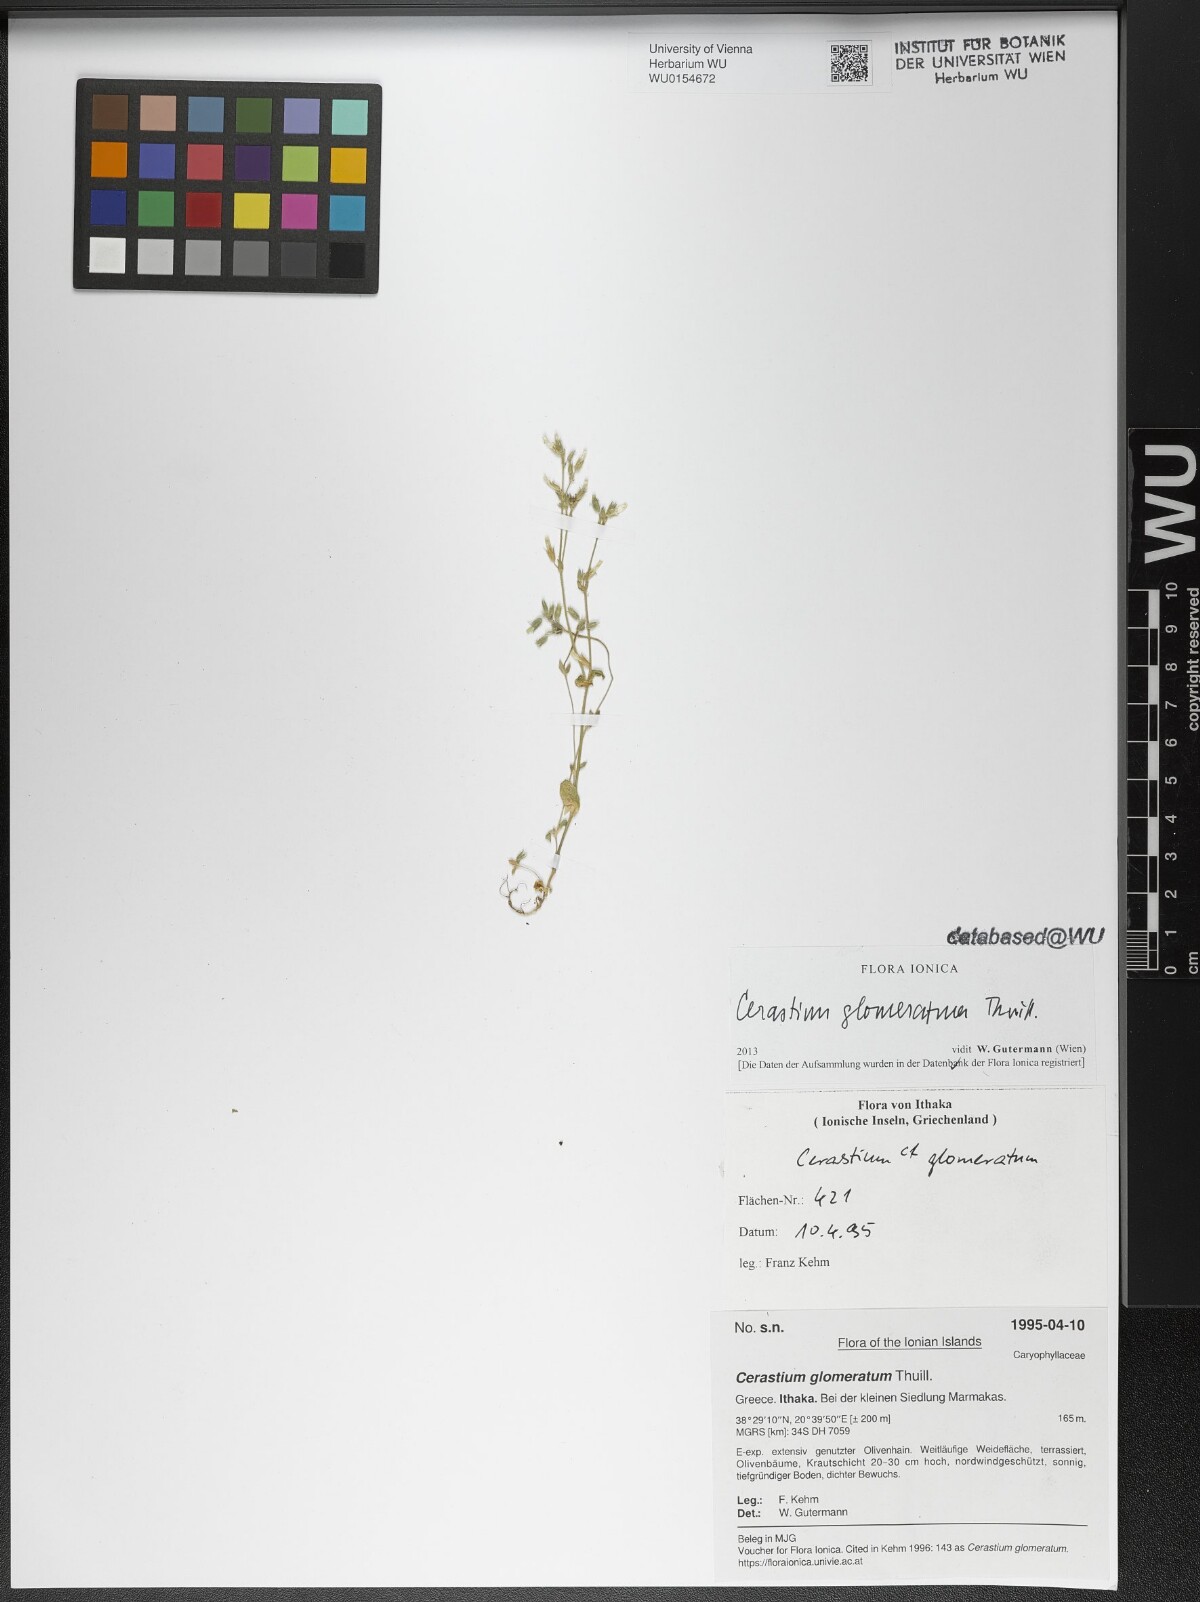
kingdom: Plantae
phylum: Tracheophyta
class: Magnoliopsida
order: Caryophyllales
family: Caryophyllaceae
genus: Cerastium
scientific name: Cerastium glomeratum
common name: Sticky chickweed
